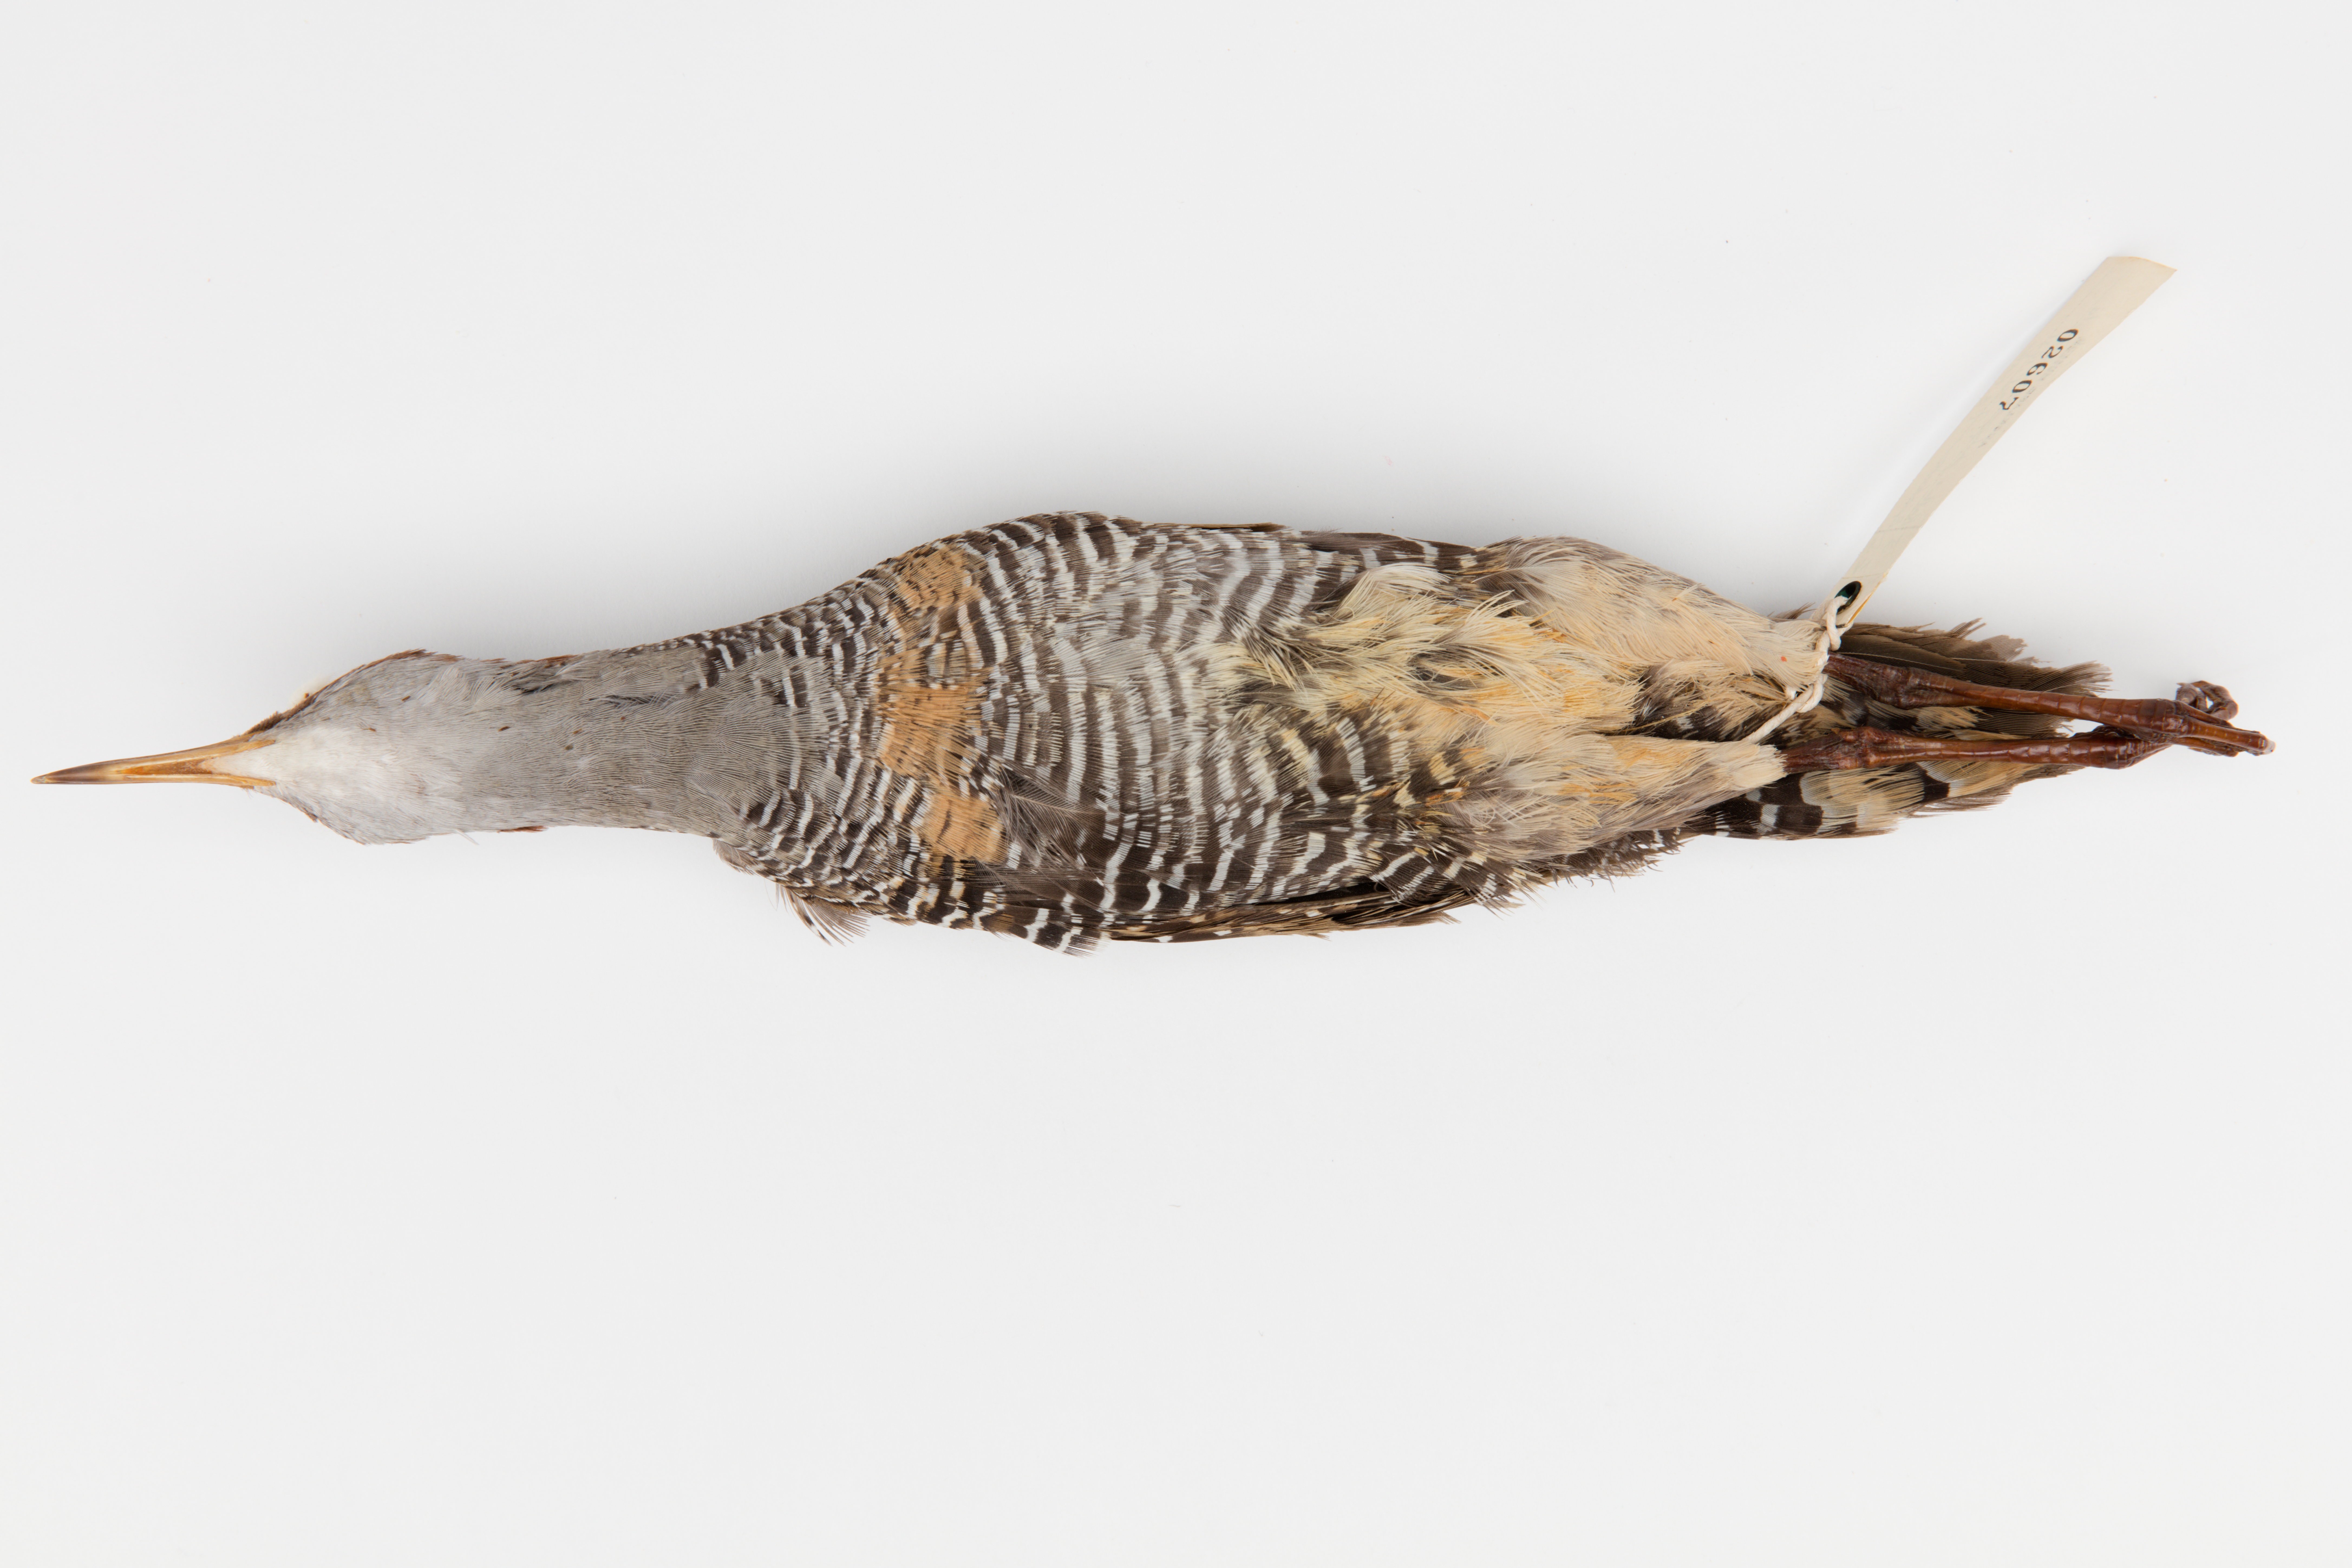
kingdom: Animalia
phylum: Chordata
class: Aves
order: Gruiformes
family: Rallidae
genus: Gallirallus
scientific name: Gallirallus philippensis
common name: Buff-banded rail
